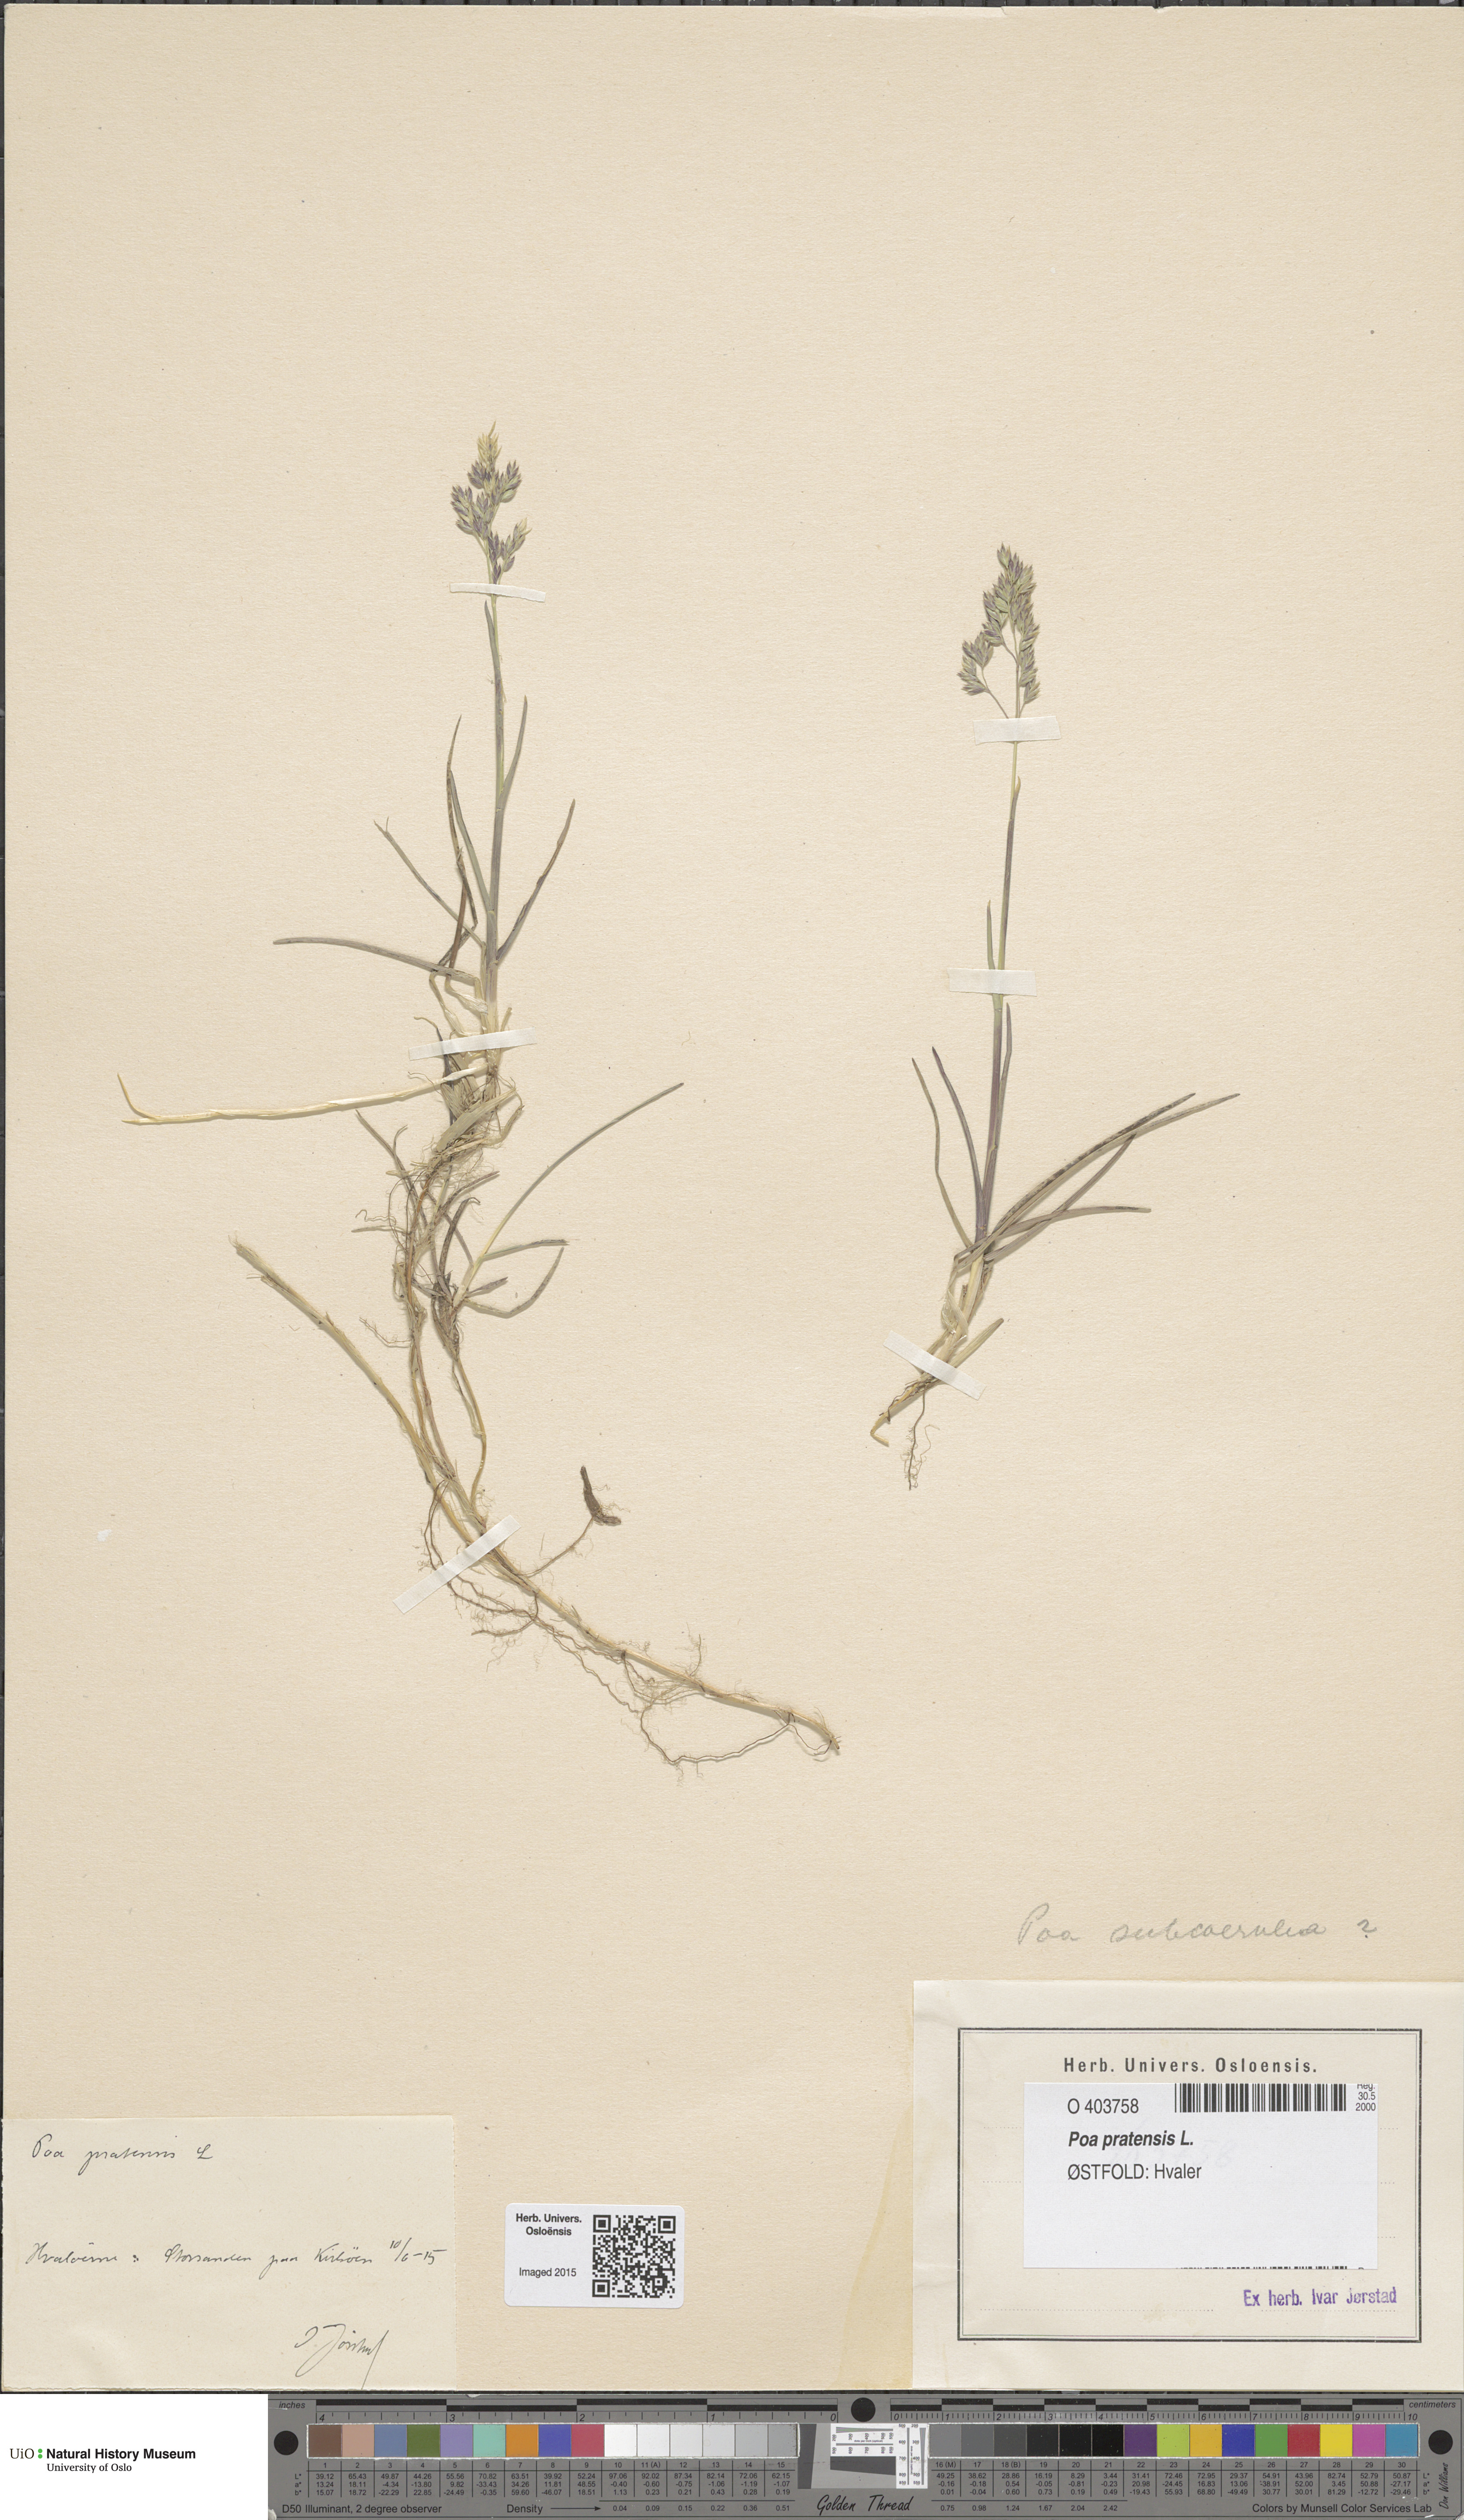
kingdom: Plantae
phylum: Tracheophyta
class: Liliopsida
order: Poales
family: Poaceae
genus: Poa
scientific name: Poa humilis
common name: Spreading meadow-grass
